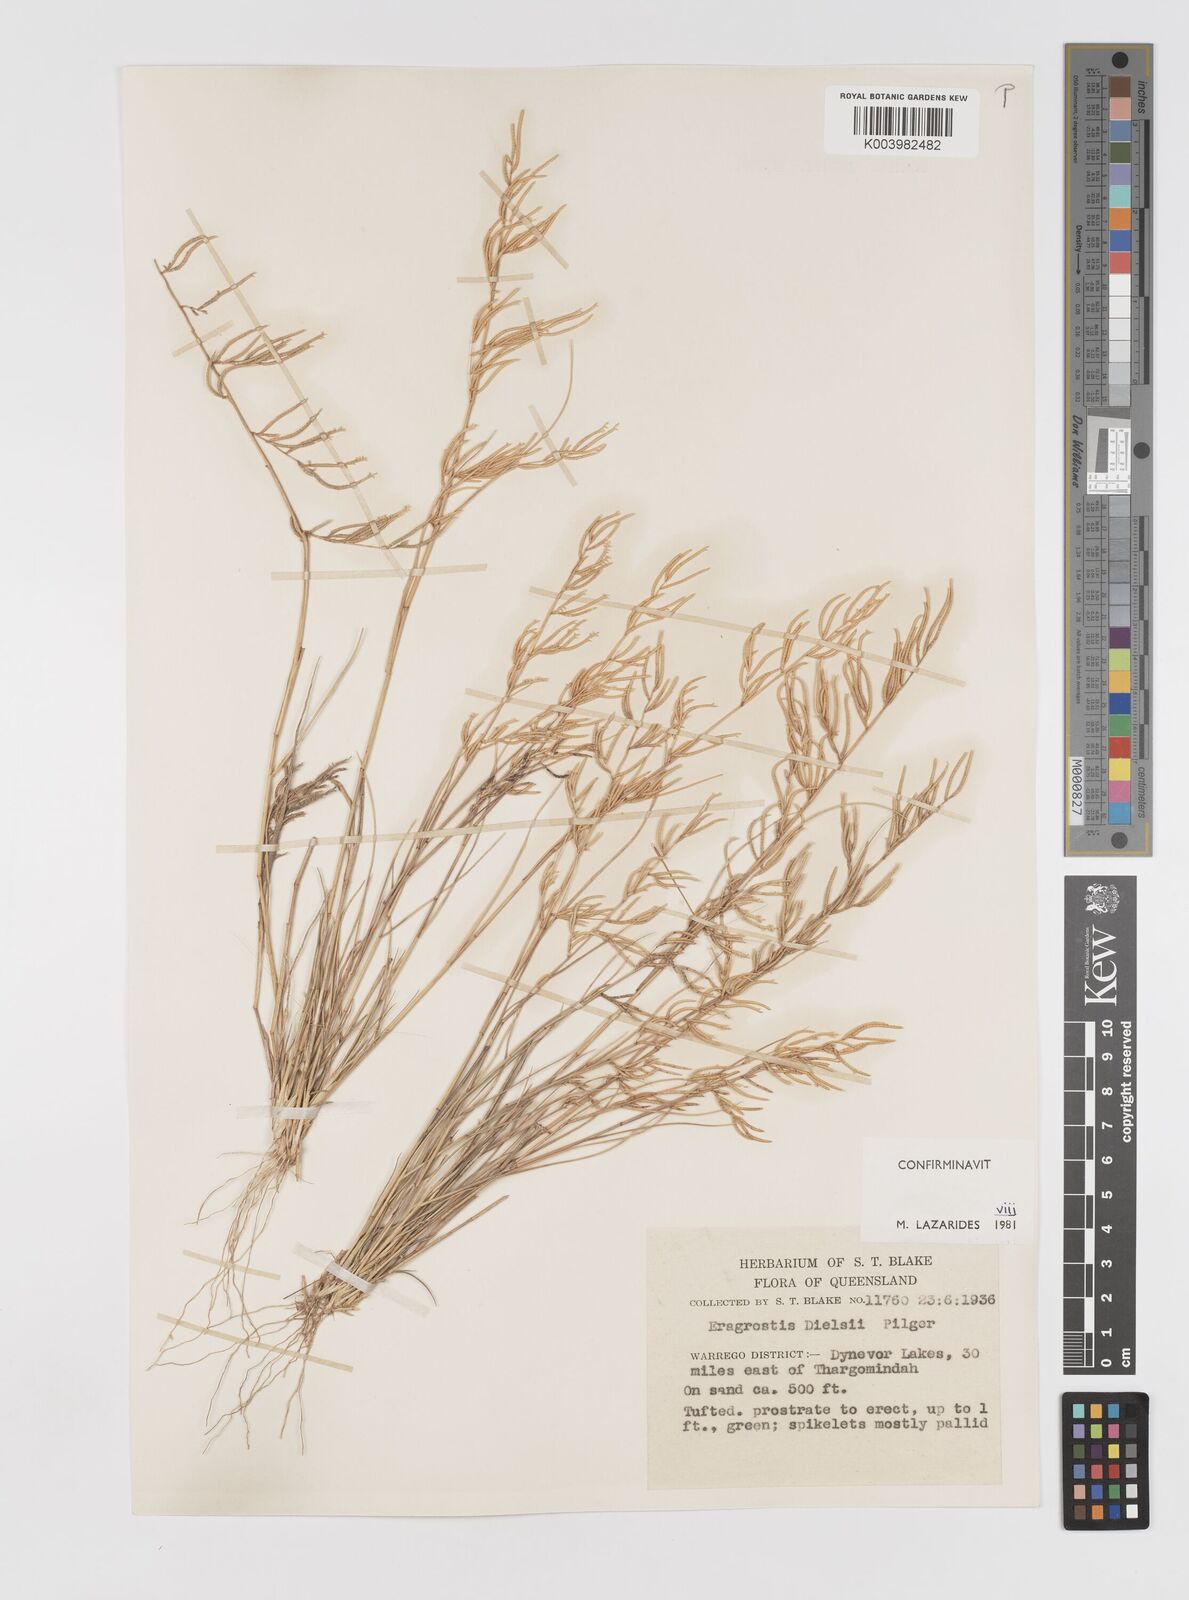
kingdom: Plantae
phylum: Tracheophyta
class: Liliopsida
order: Poales
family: Poaceae
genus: Eragrostis
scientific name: Eragrostis dielsii
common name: Lovegrass
